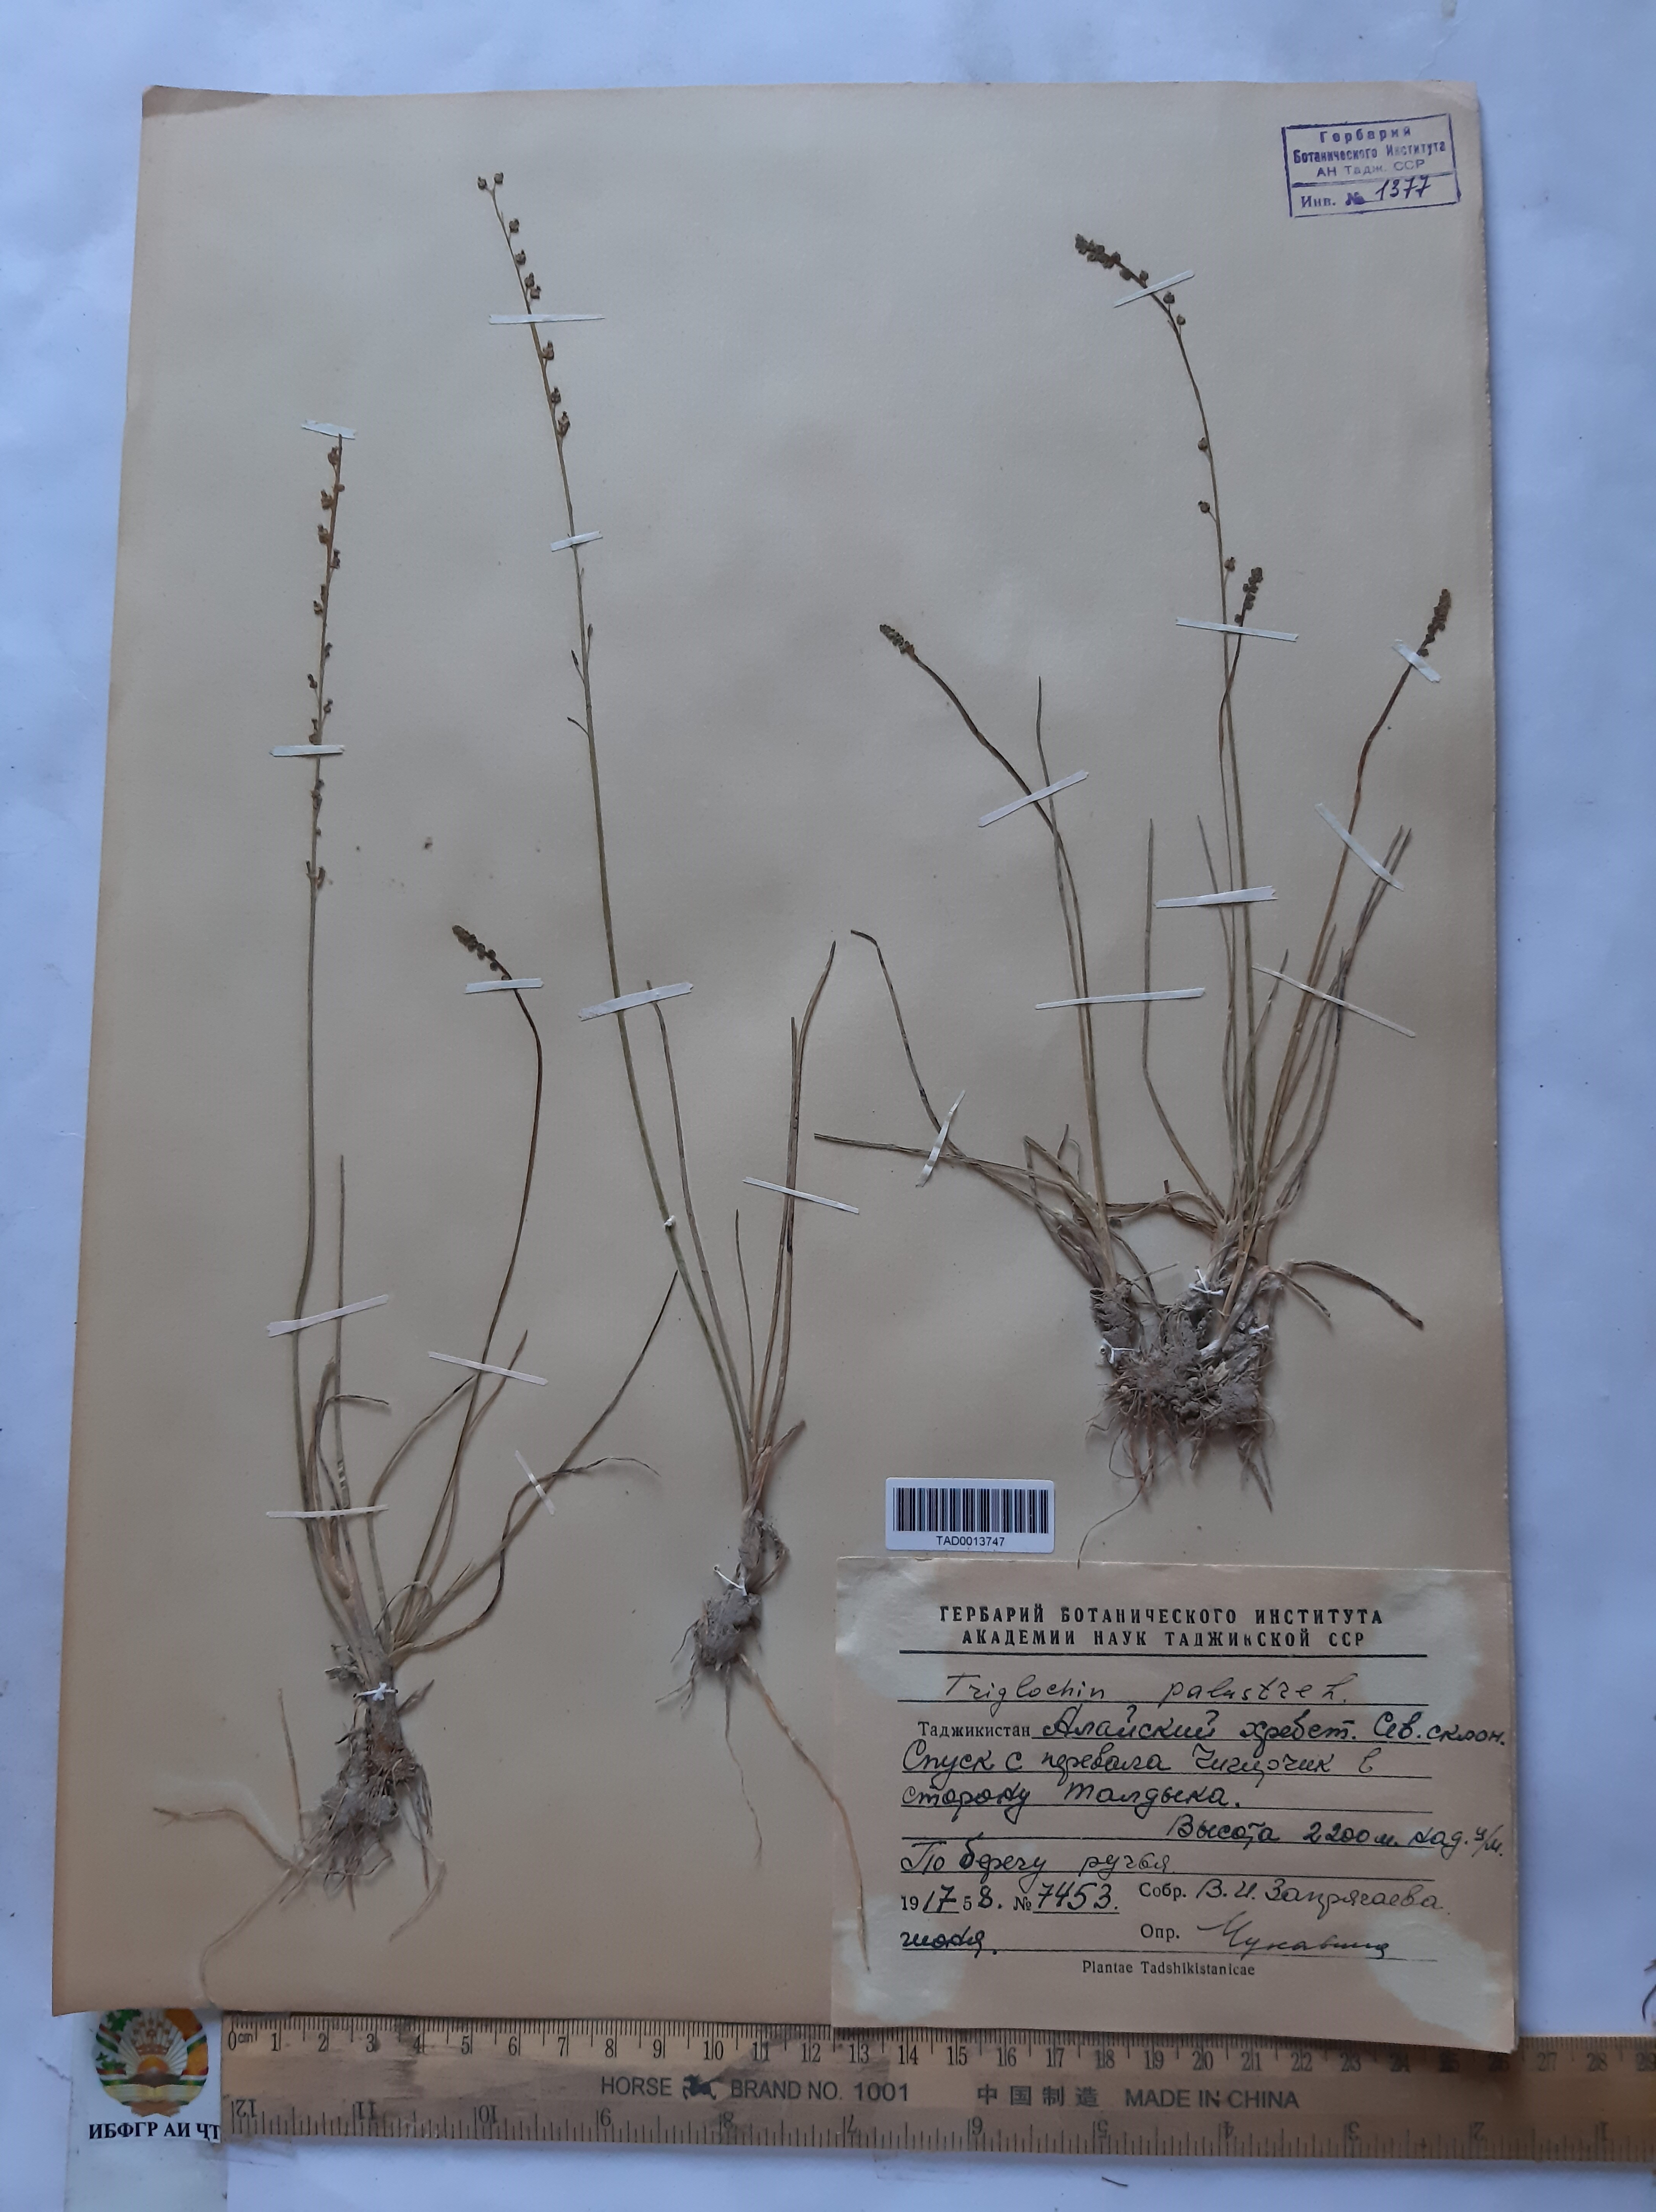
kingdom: Plantae
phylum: Tracheophyta
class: Liliopsida
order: Alismatales
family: Juncaginaceae
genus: Triglochin
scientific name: Triglochin palustris
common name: Marsh arrowgrass
